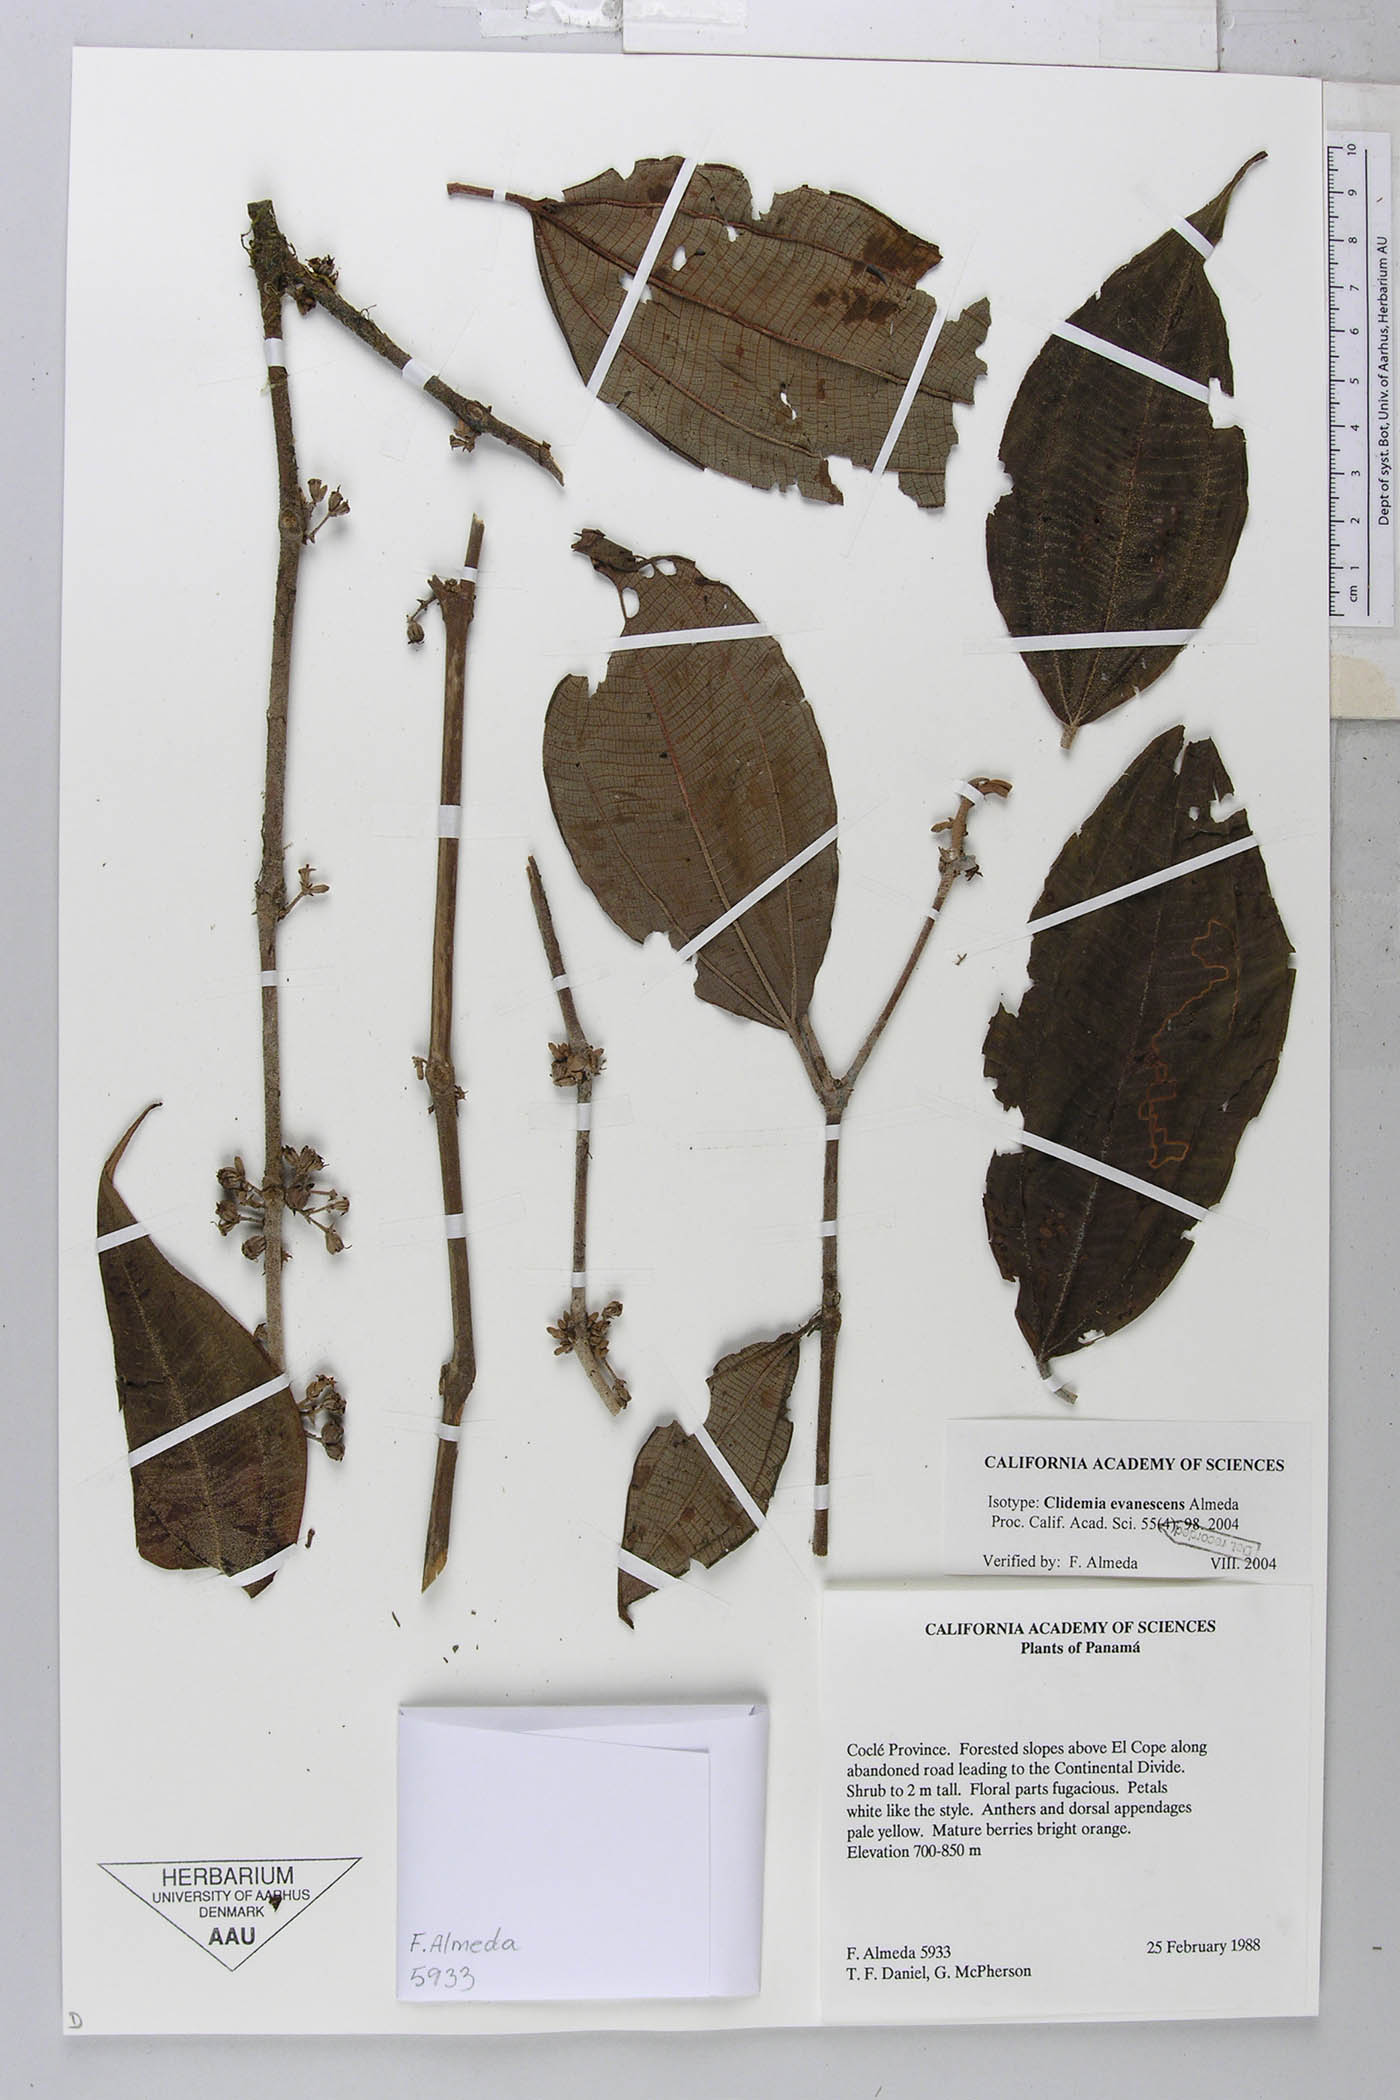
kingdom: Plantae
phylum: Tracheophyta
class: Magnoliopsida
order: Myrtales
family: Melastomataceae
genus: Miconia
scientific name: Miconia evanescens
